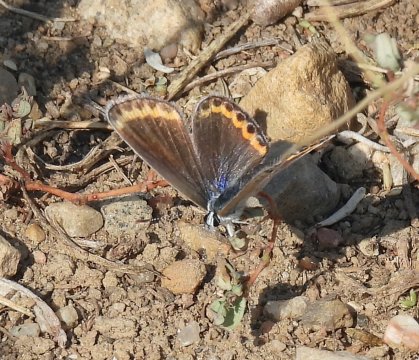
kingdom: Animalia
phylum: Arthropoda
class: Insecta
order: Lepidoptera
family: Lycaenidae
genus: Lycaeides
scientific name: Lycaeides melissa
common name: Melissa Blue
